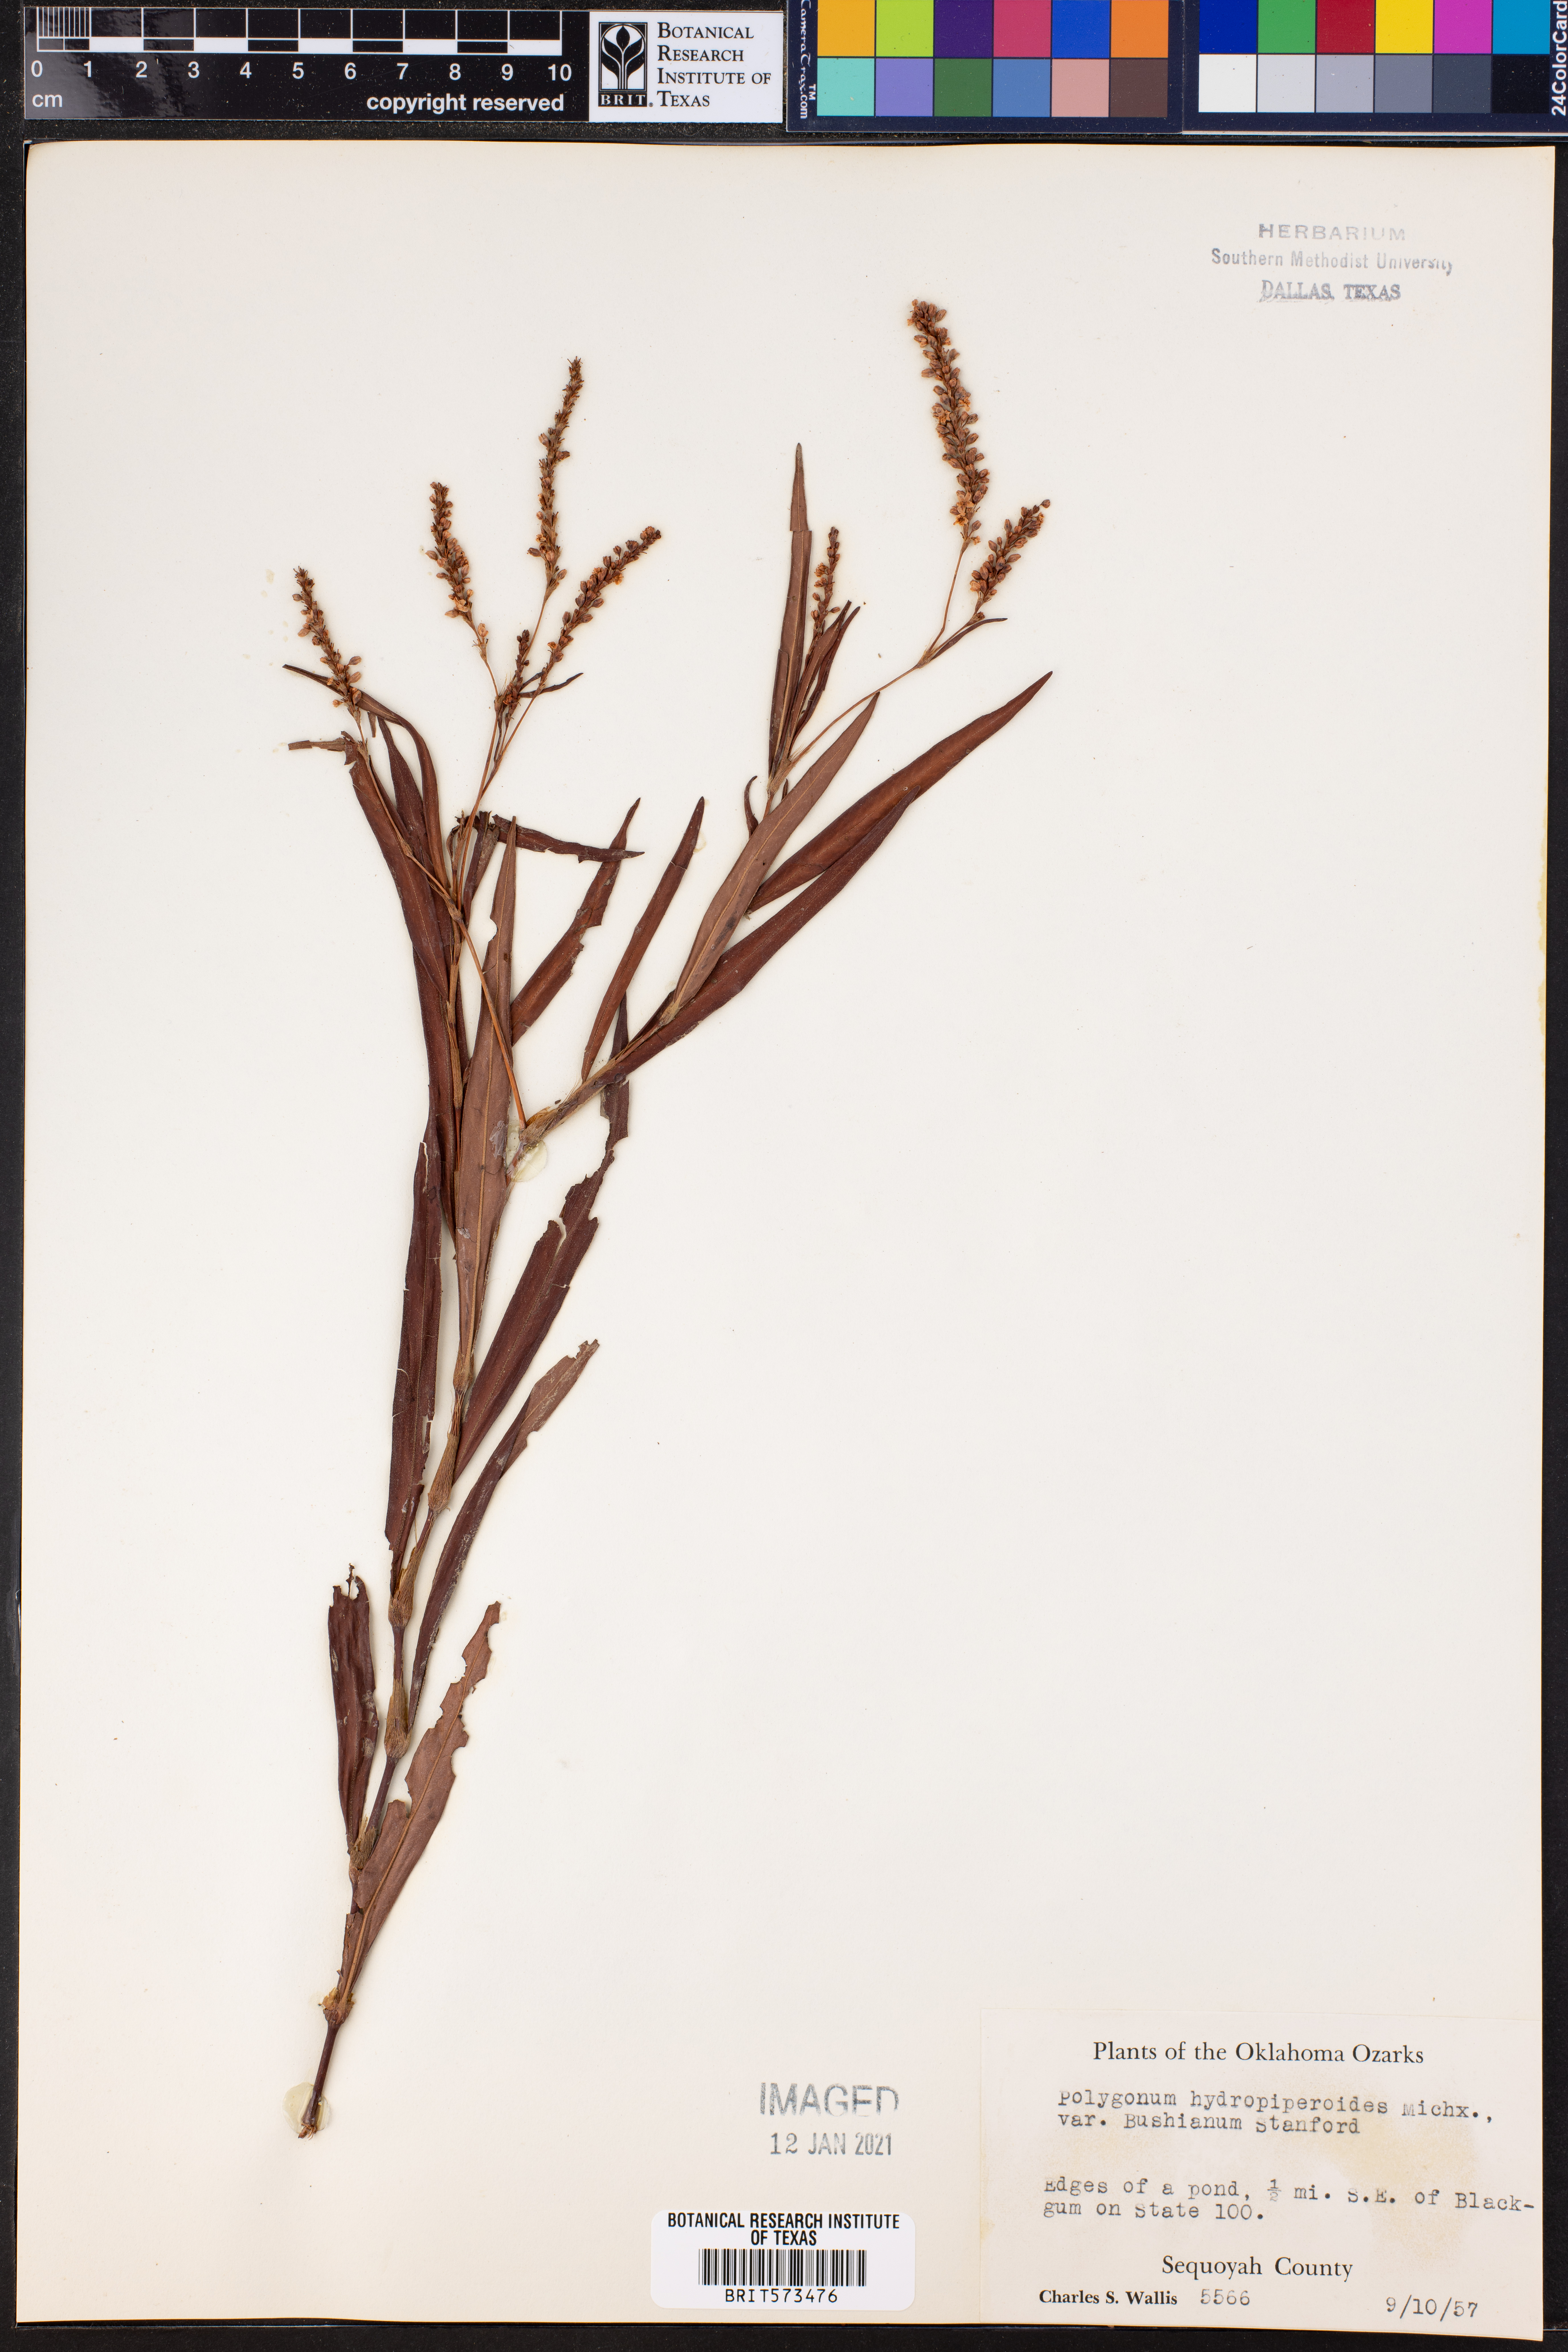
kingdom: Plantae
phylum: Tracheophyta
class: Magnoliopsida
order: Caryophyllales
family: Polygonaceae
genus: Persicaria
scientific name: Persicaria hydropiperoides
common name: Swamp smartweed
